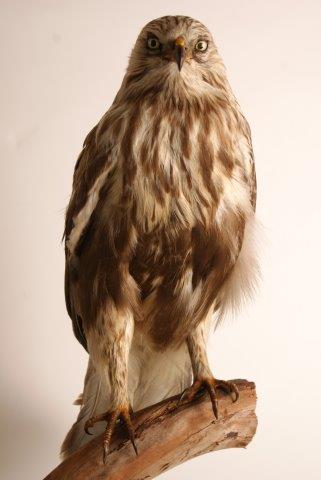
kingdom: Animalia
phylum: Chordata
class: Aves
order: Accipitriformes
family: Accipitridae
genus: Buteo
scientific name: Buteo lagopus
